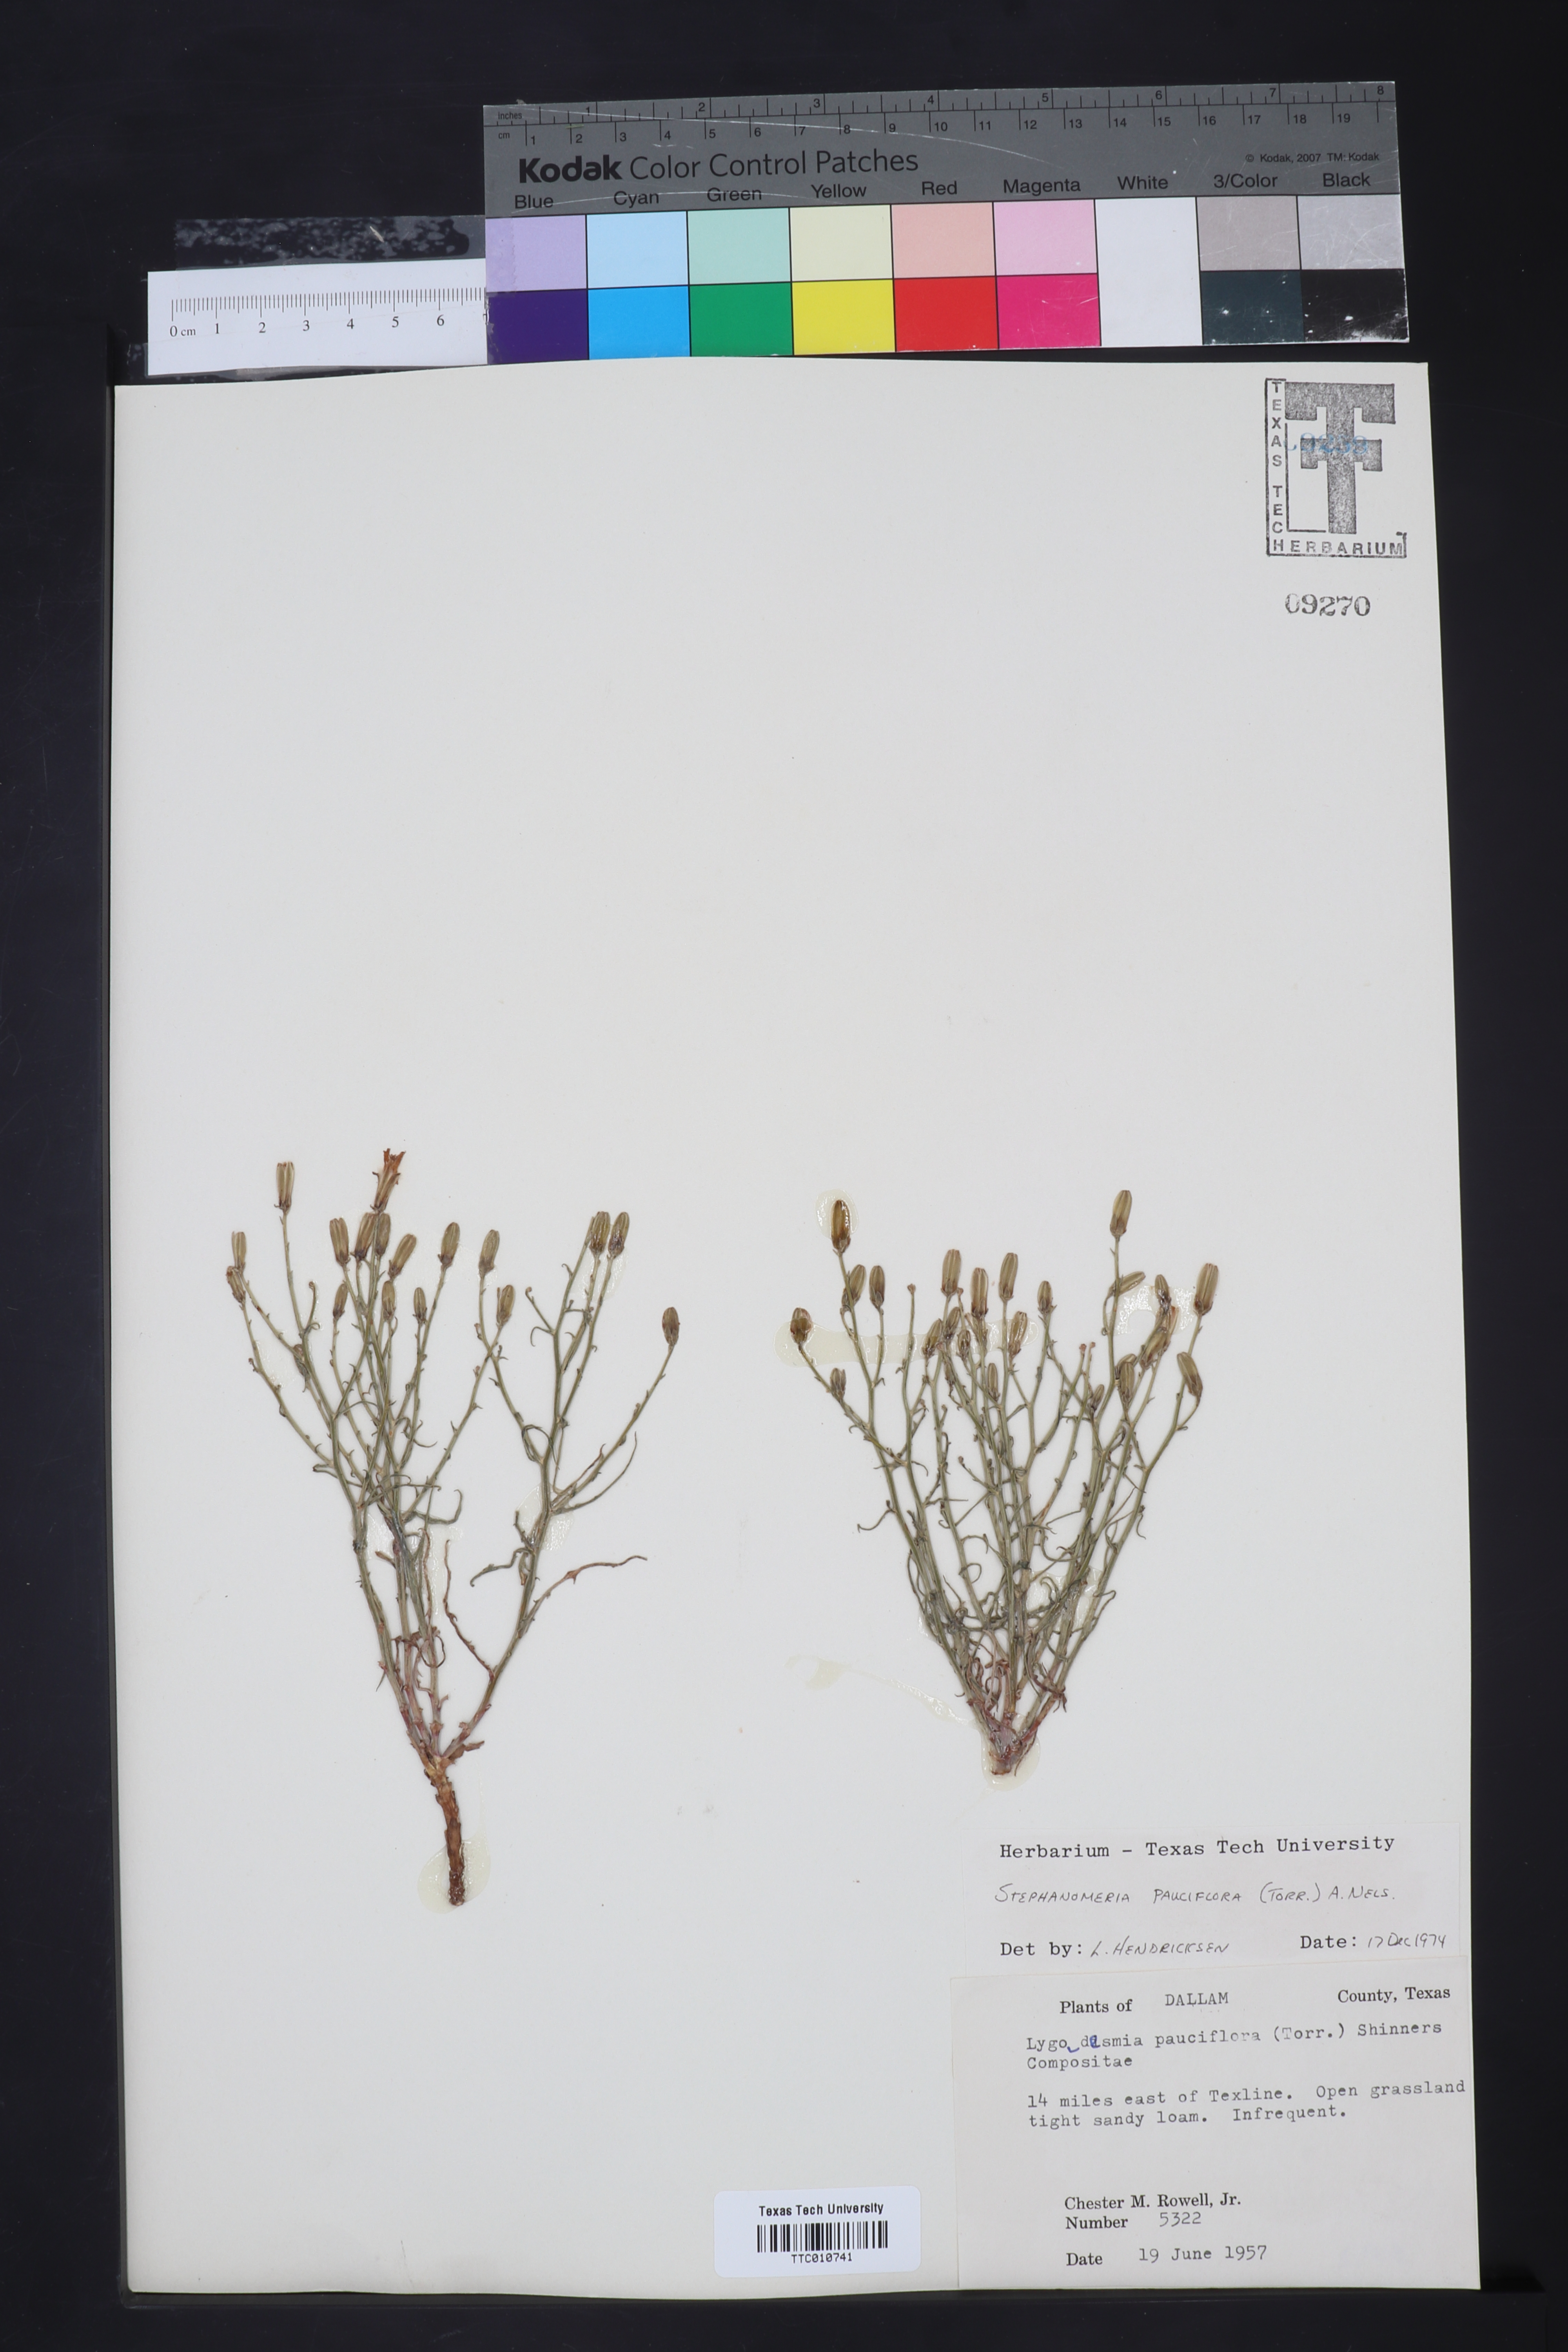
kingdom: Plantae
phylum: Tracheophyta
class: Magnoliopsida
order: Asterales
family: Asteraceae
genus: Stephanomeria
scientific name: Stephanomeria pauciflora
